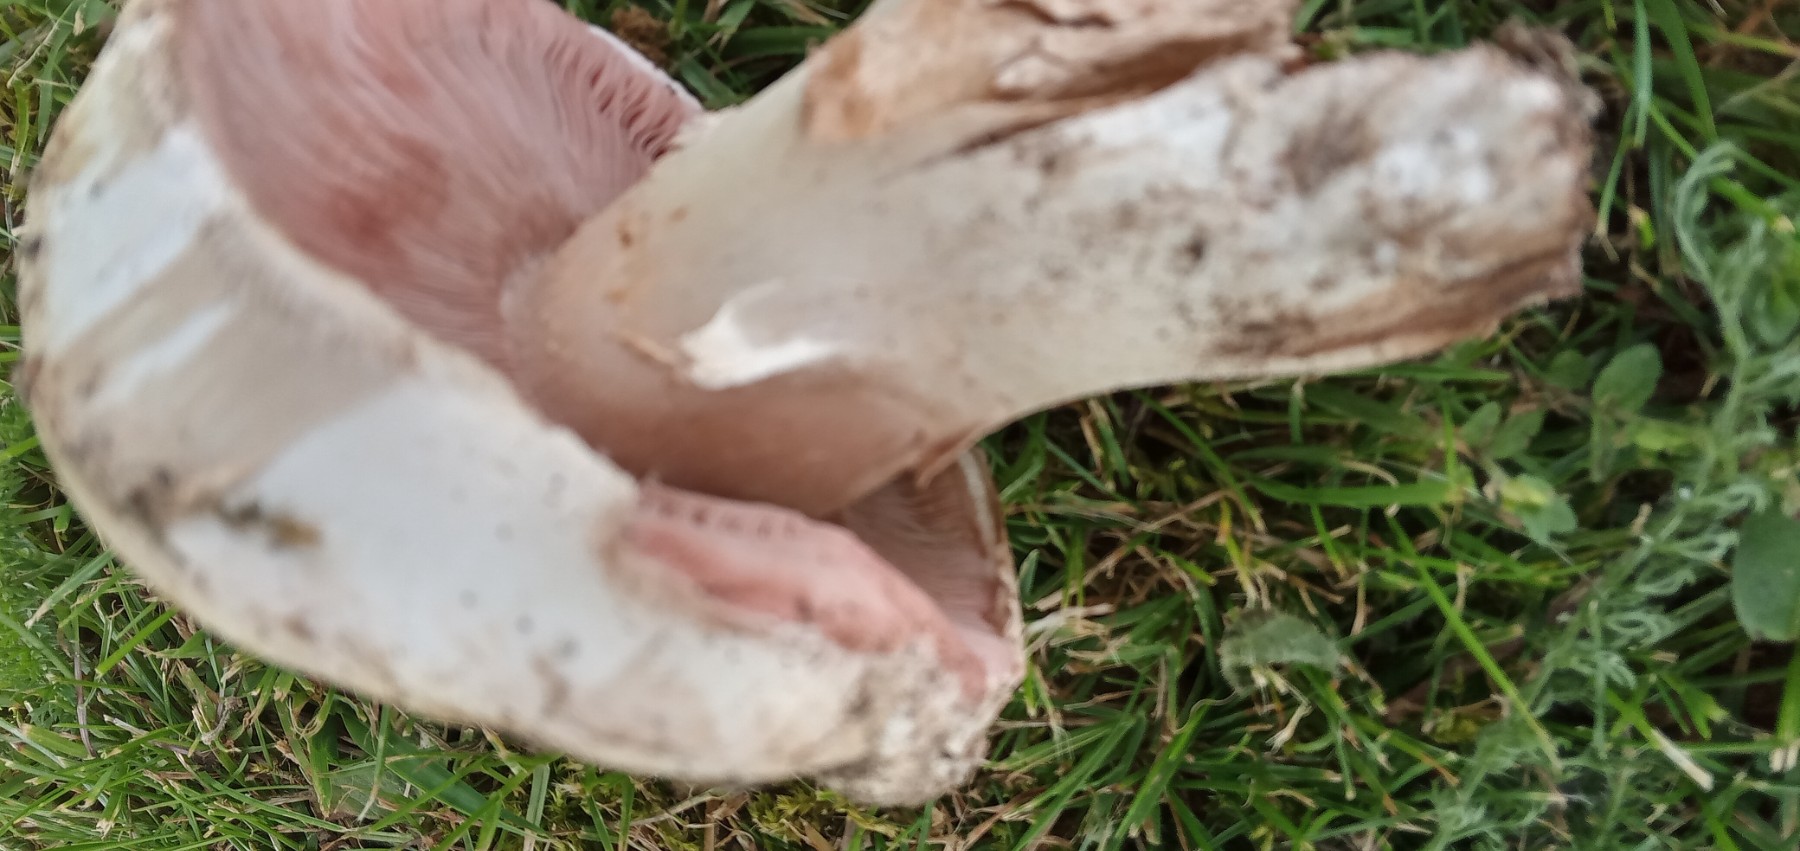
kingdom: Fungi
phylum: Basidiomycota
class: Agaricomycetes
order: Agaricales
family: Agaricaceae
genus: Agaricus
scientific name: Agaricus campestris
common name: mark-champignon
